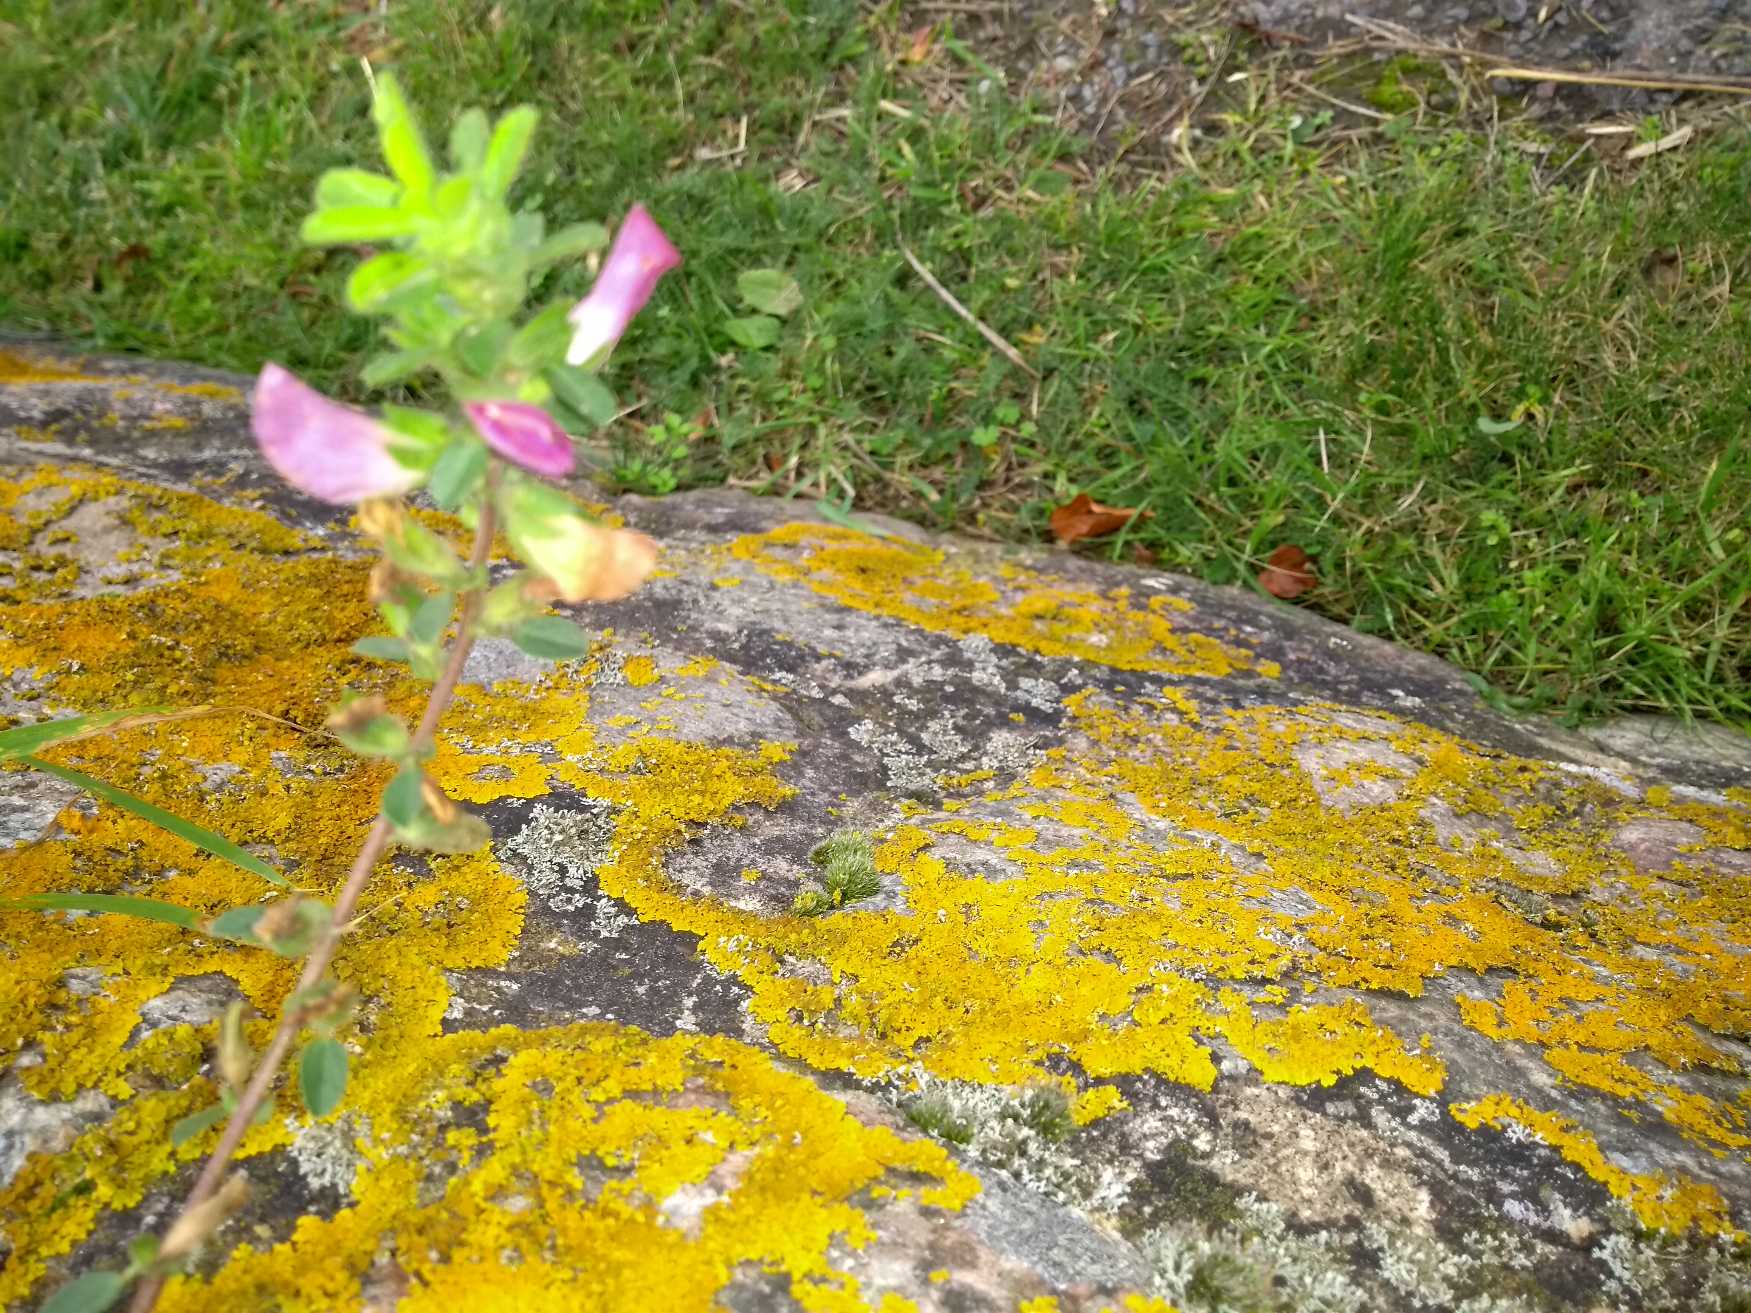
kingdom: Plantae
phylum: Tracheophyta
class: Magnoliopsida
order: Fabales
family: Fabaceae
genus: Ononis
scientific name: Ononis spinosa
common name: Mark-krageklo
